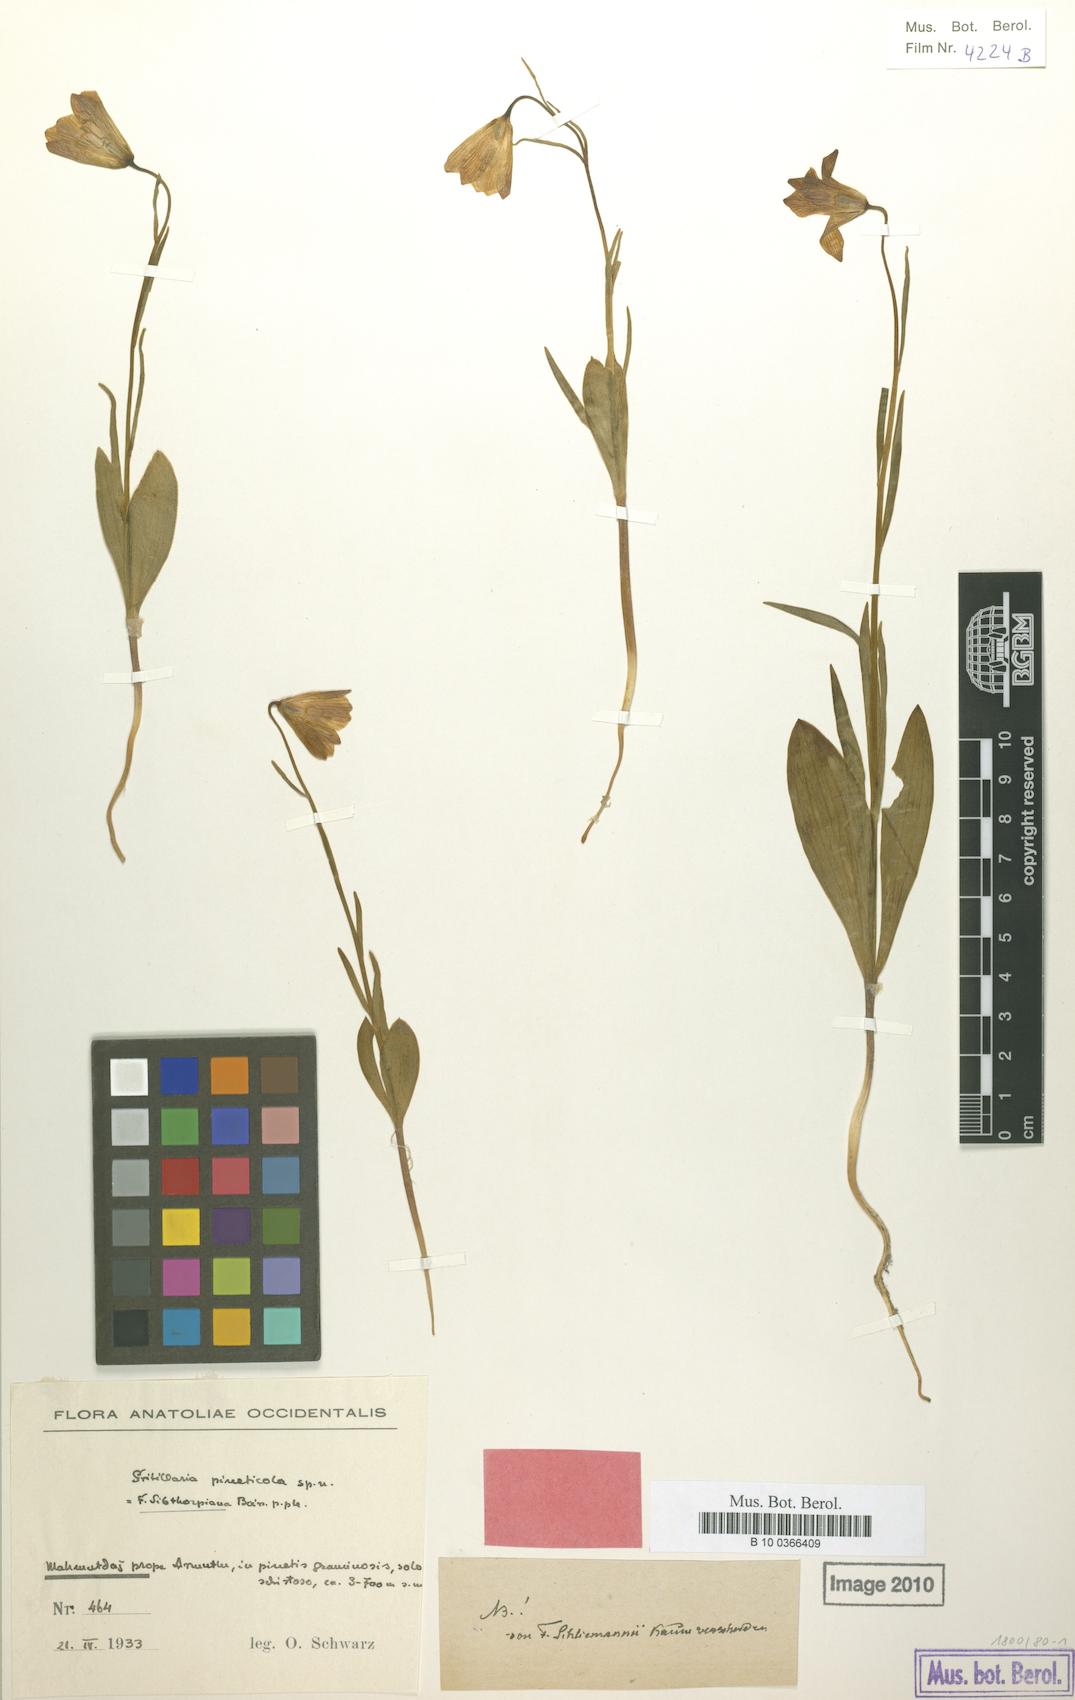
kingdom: Plantae
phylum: Tracheophyta
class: Liliopsida
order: Liliales
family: Liliaceae
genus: Fritillaria
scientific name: Fritillaria bithynica
